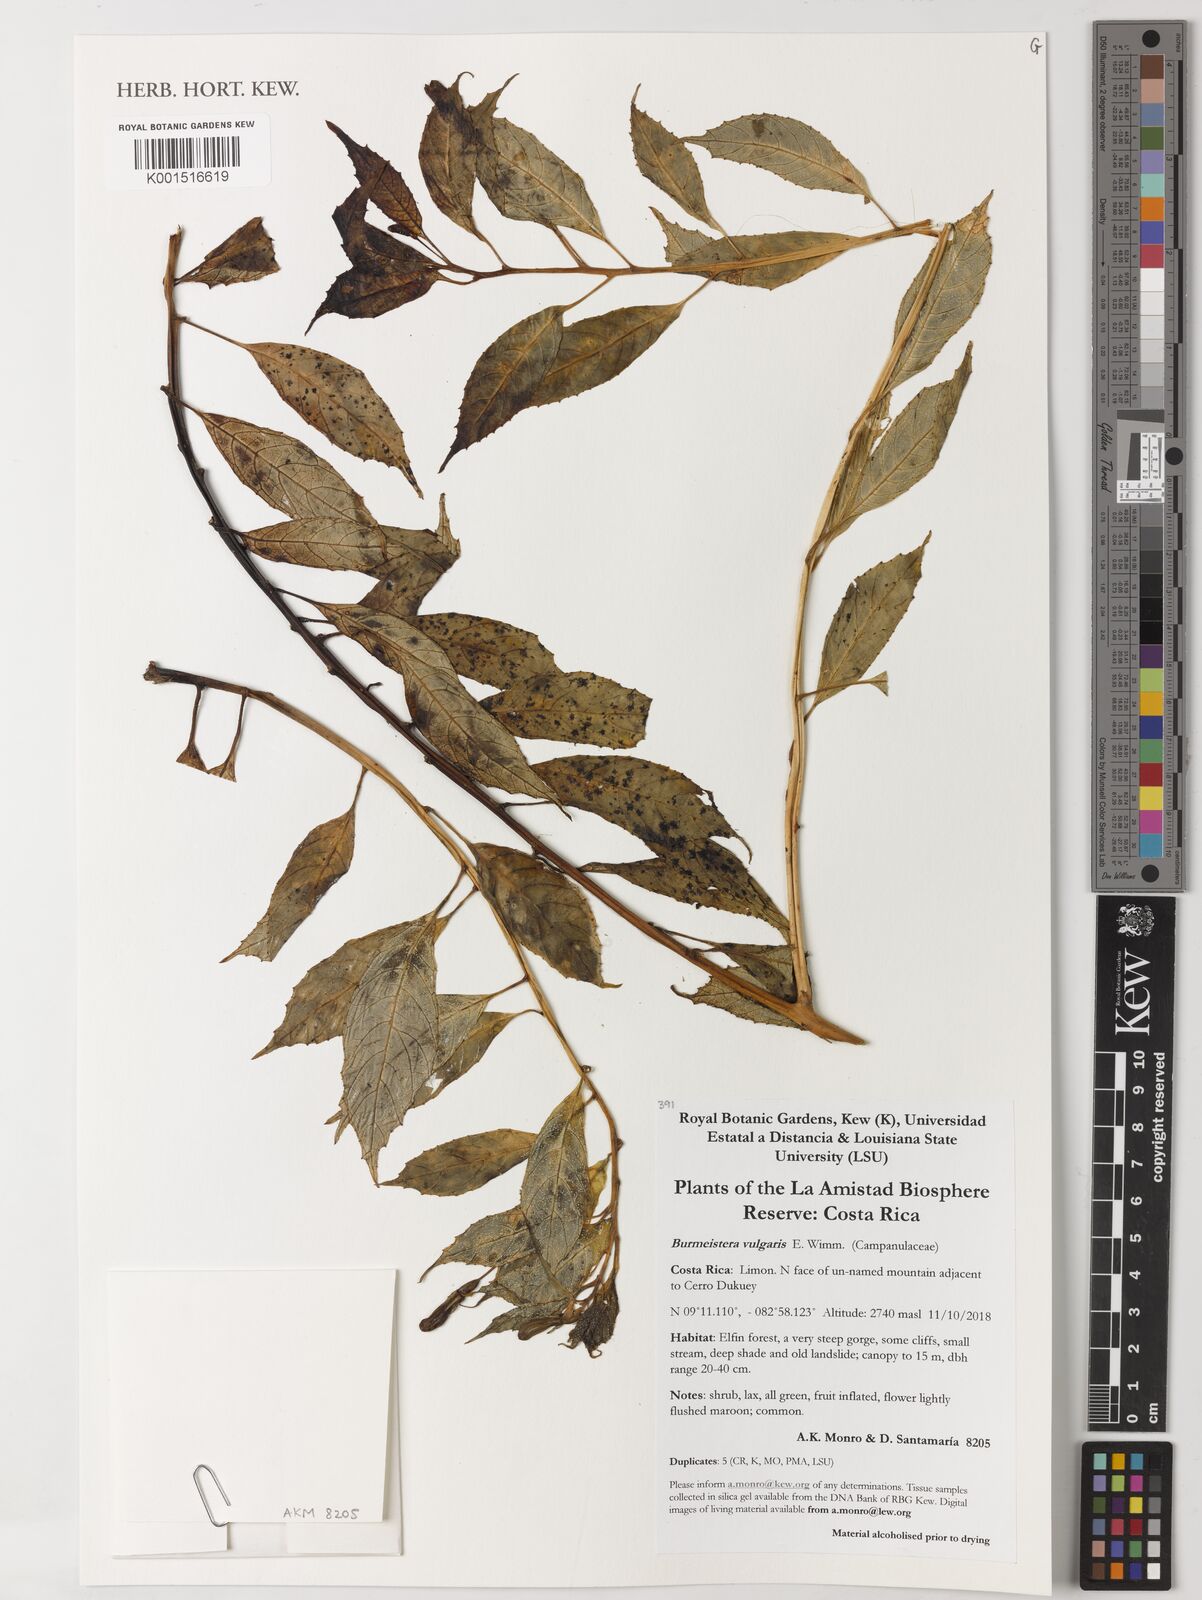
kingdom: Plantae
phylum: Tracheophyta
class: Magnoliopsida
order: Asterales
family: Campanulaceae
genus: Burmeistera
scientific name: Burmeistera vulgaris
